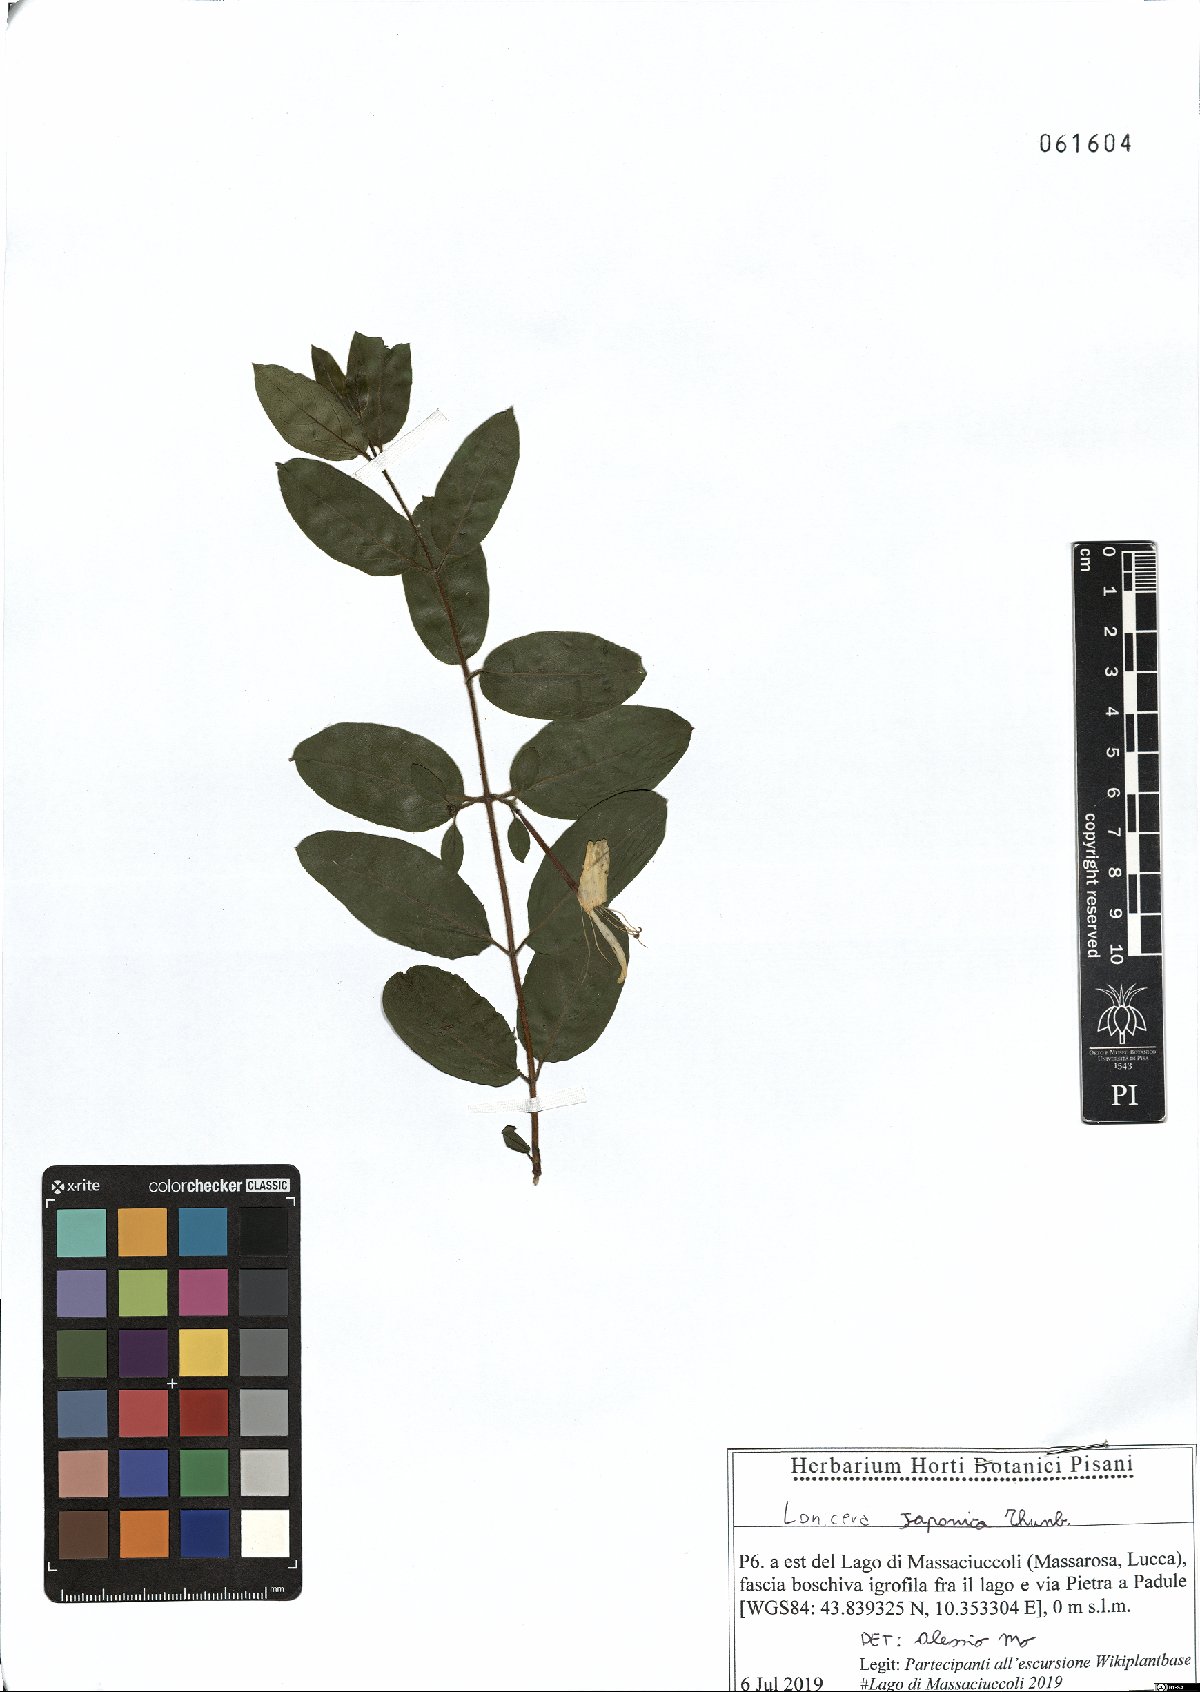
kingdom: Plantae
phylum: Tracheophyta
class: Magnoliopsida
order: Dipsacales
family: Caprifoliaceae
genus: Lonicera
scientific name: Lonicera japonica
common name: Japanese honeysuckle
